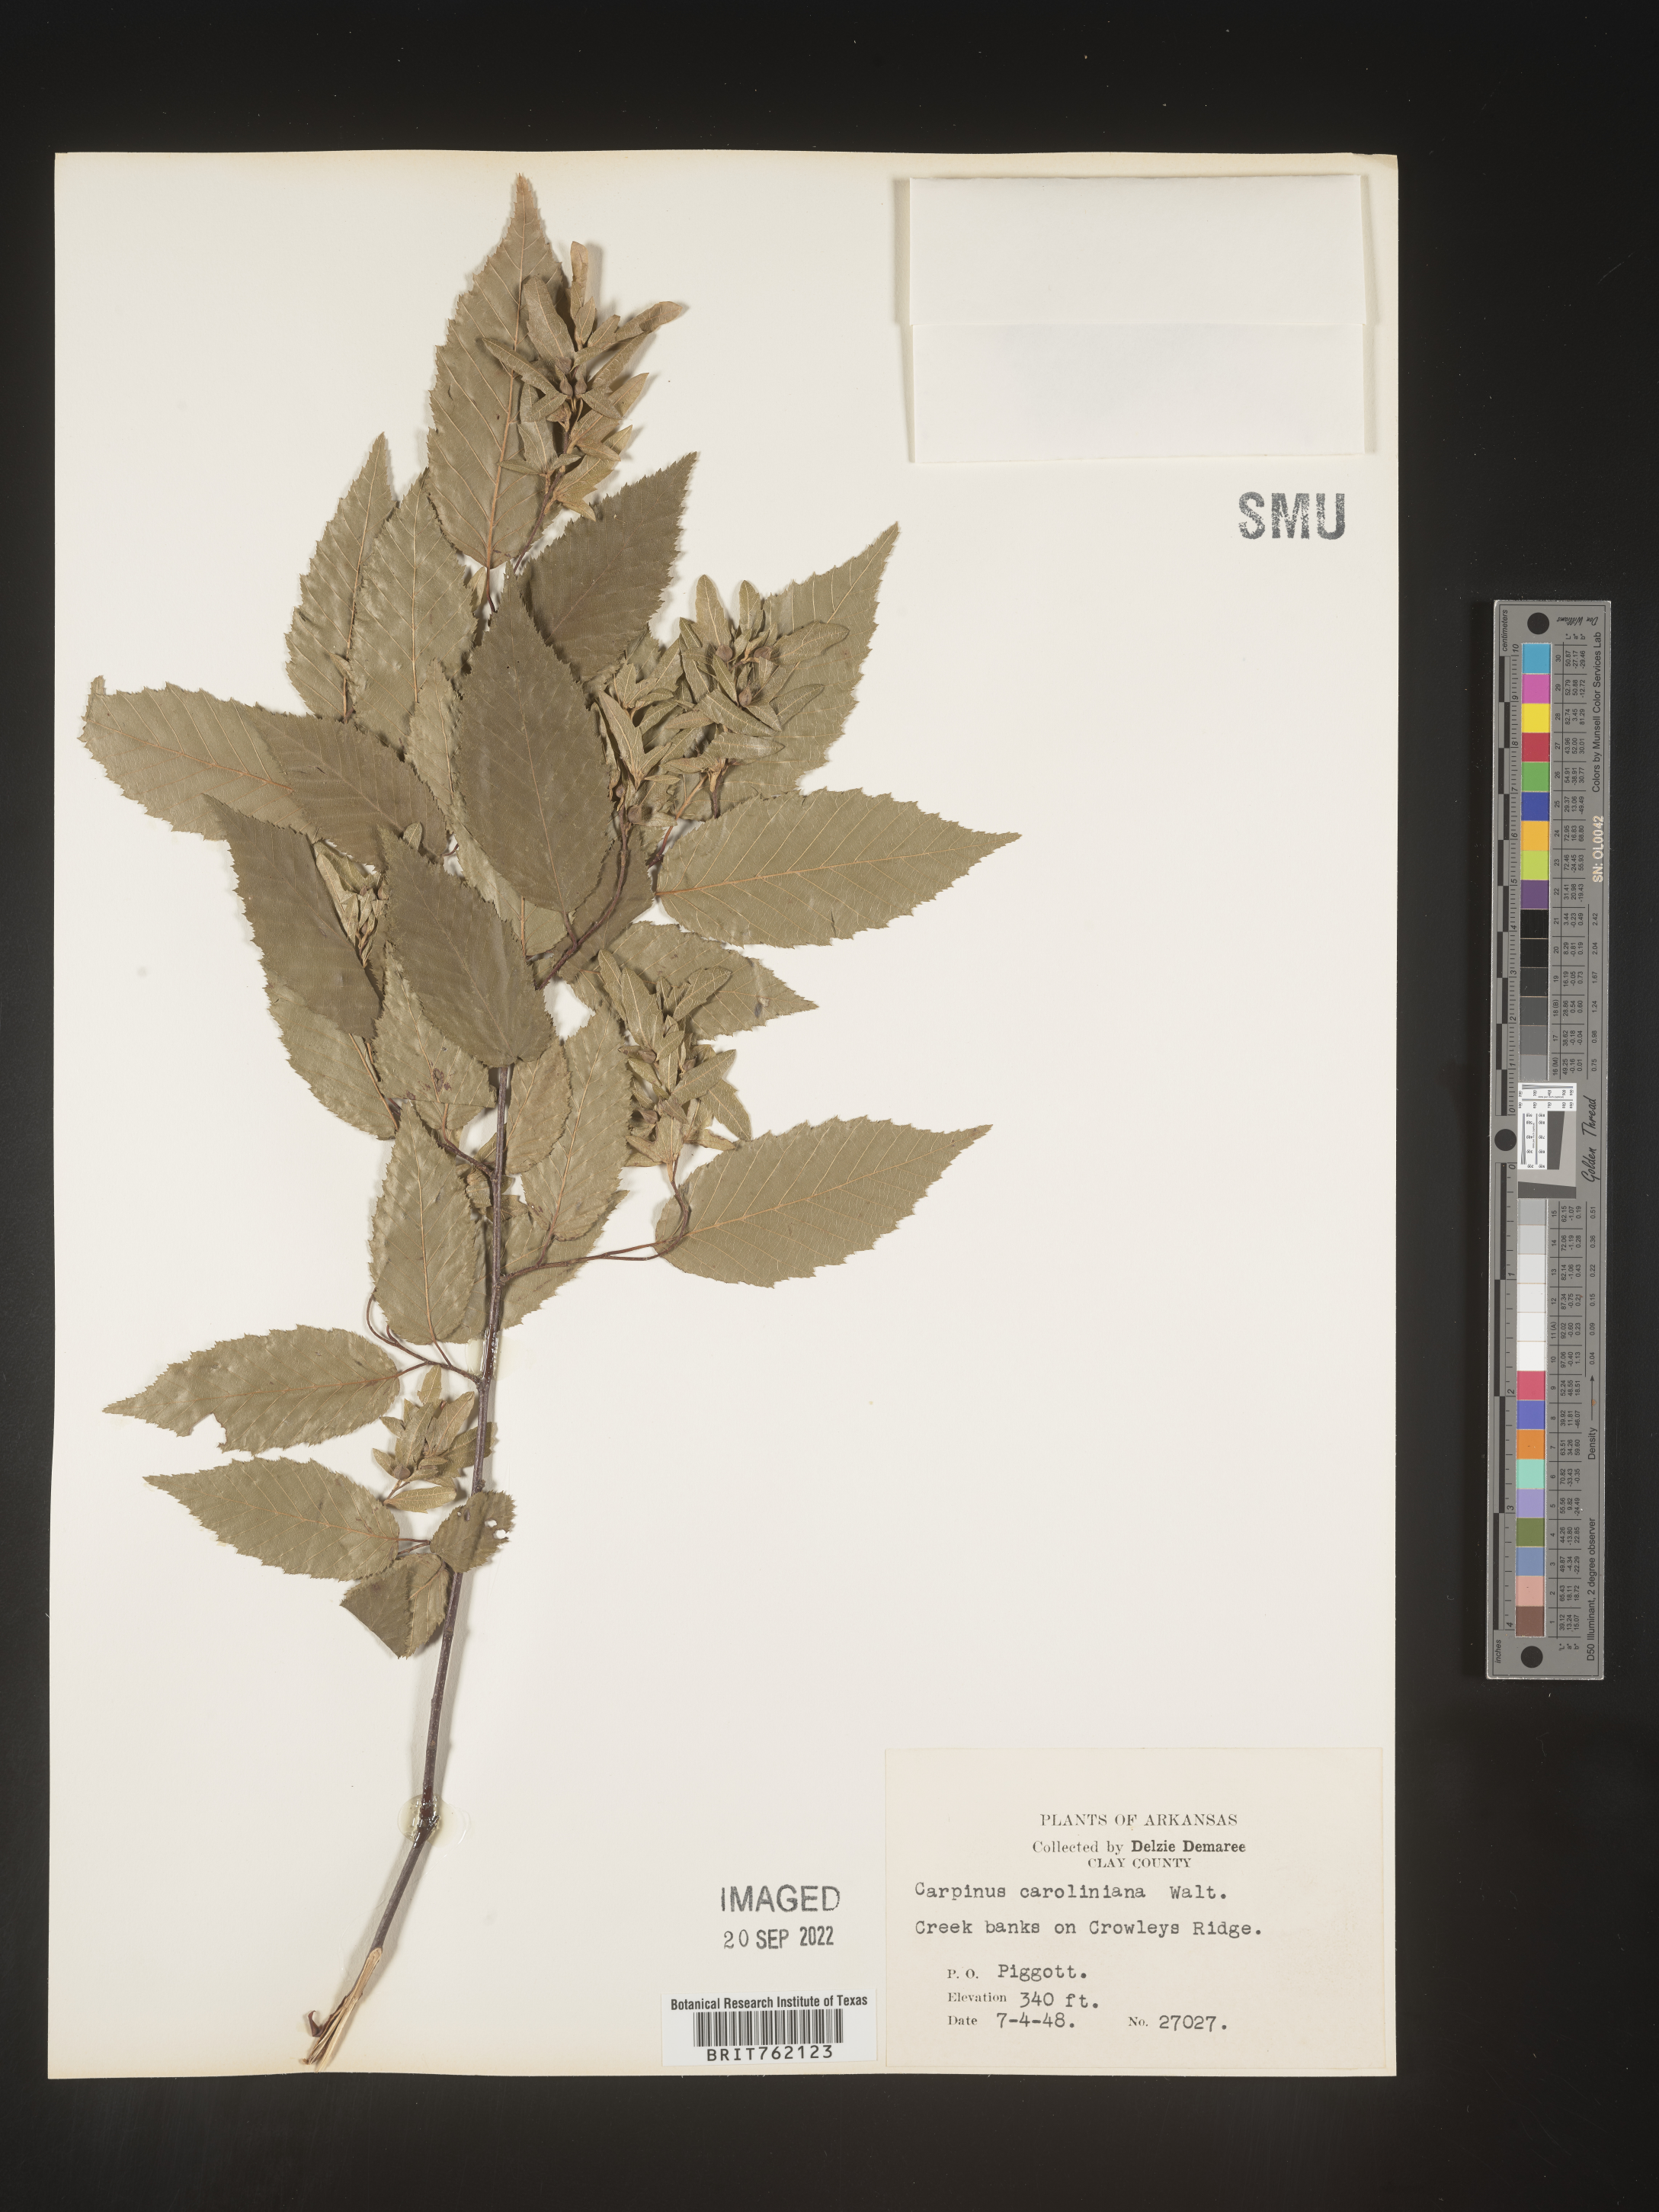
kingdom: Plantae
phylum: Tracheophyta
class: Magnoliopsida
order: Fagales
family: Betulaceae
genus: Carpinus
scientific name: Carpinus caroliniana
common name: American hornbeam
